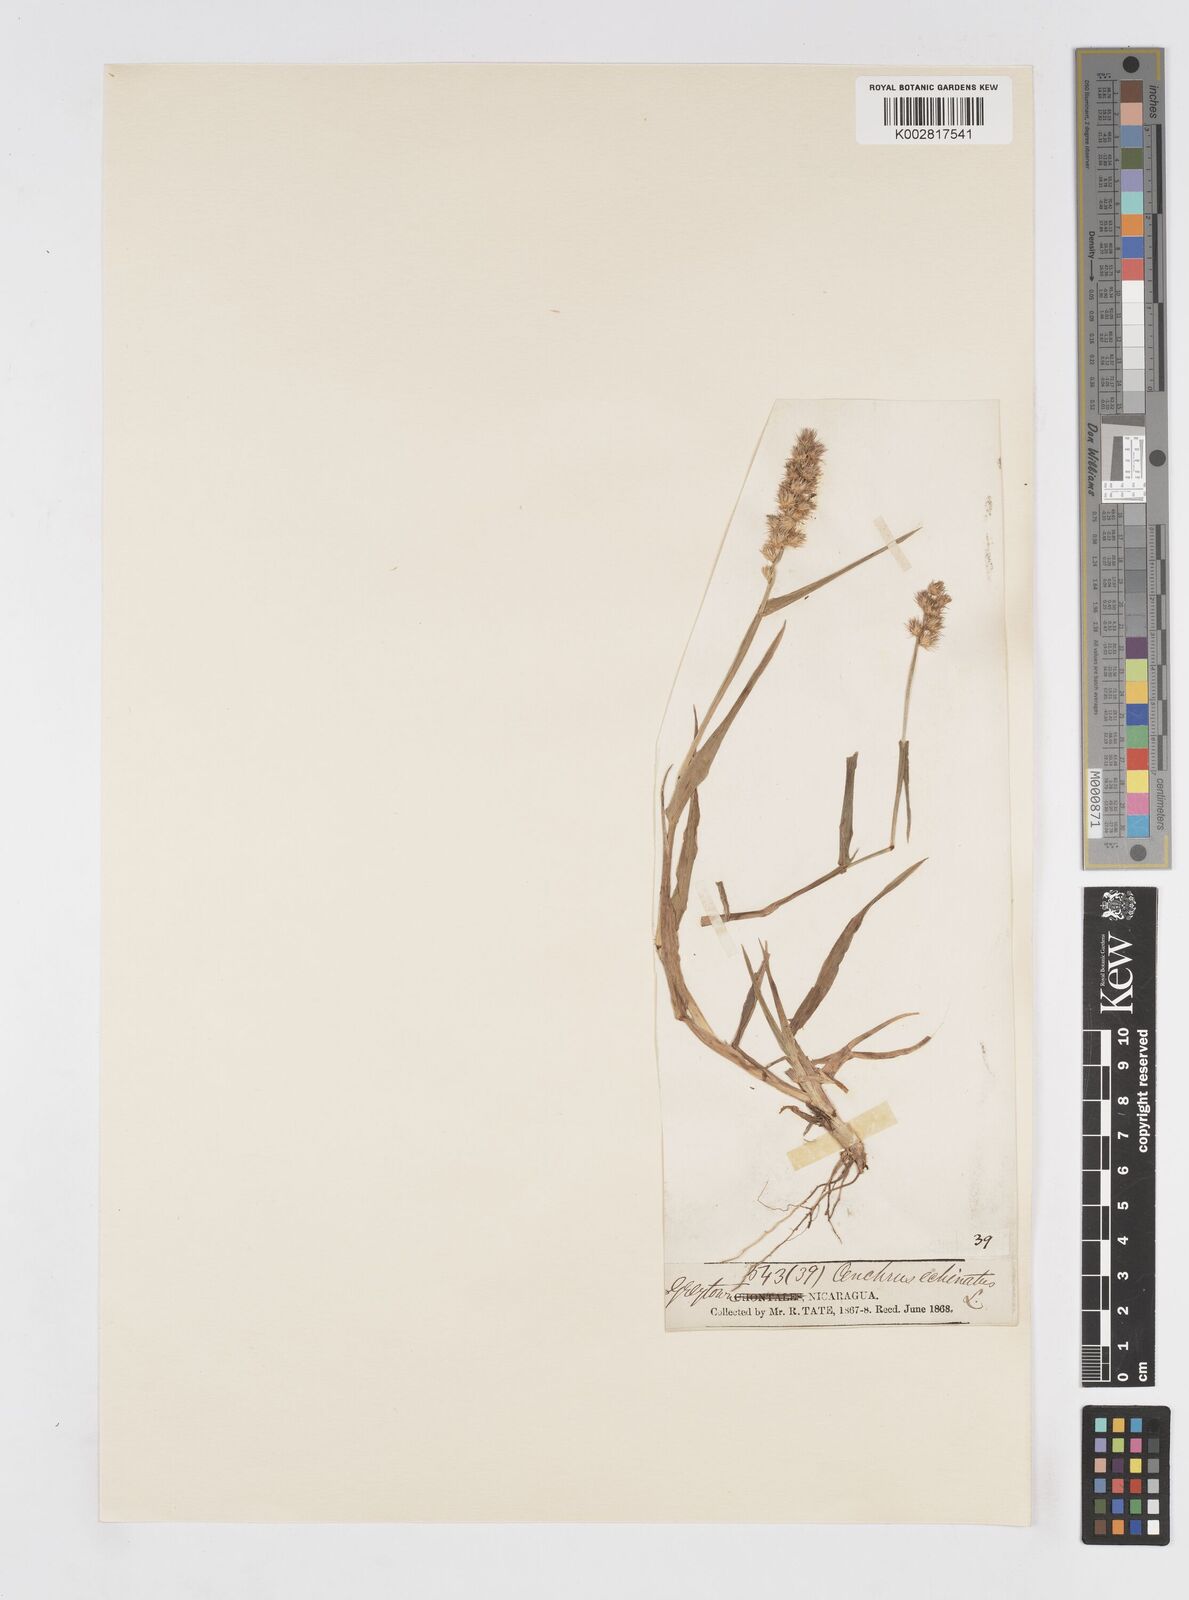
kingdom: Plantae
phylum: Tracheophyta
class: Liliopsida
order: Poales
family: Poaceae
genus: Cenchrus
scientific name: Cenchrus
